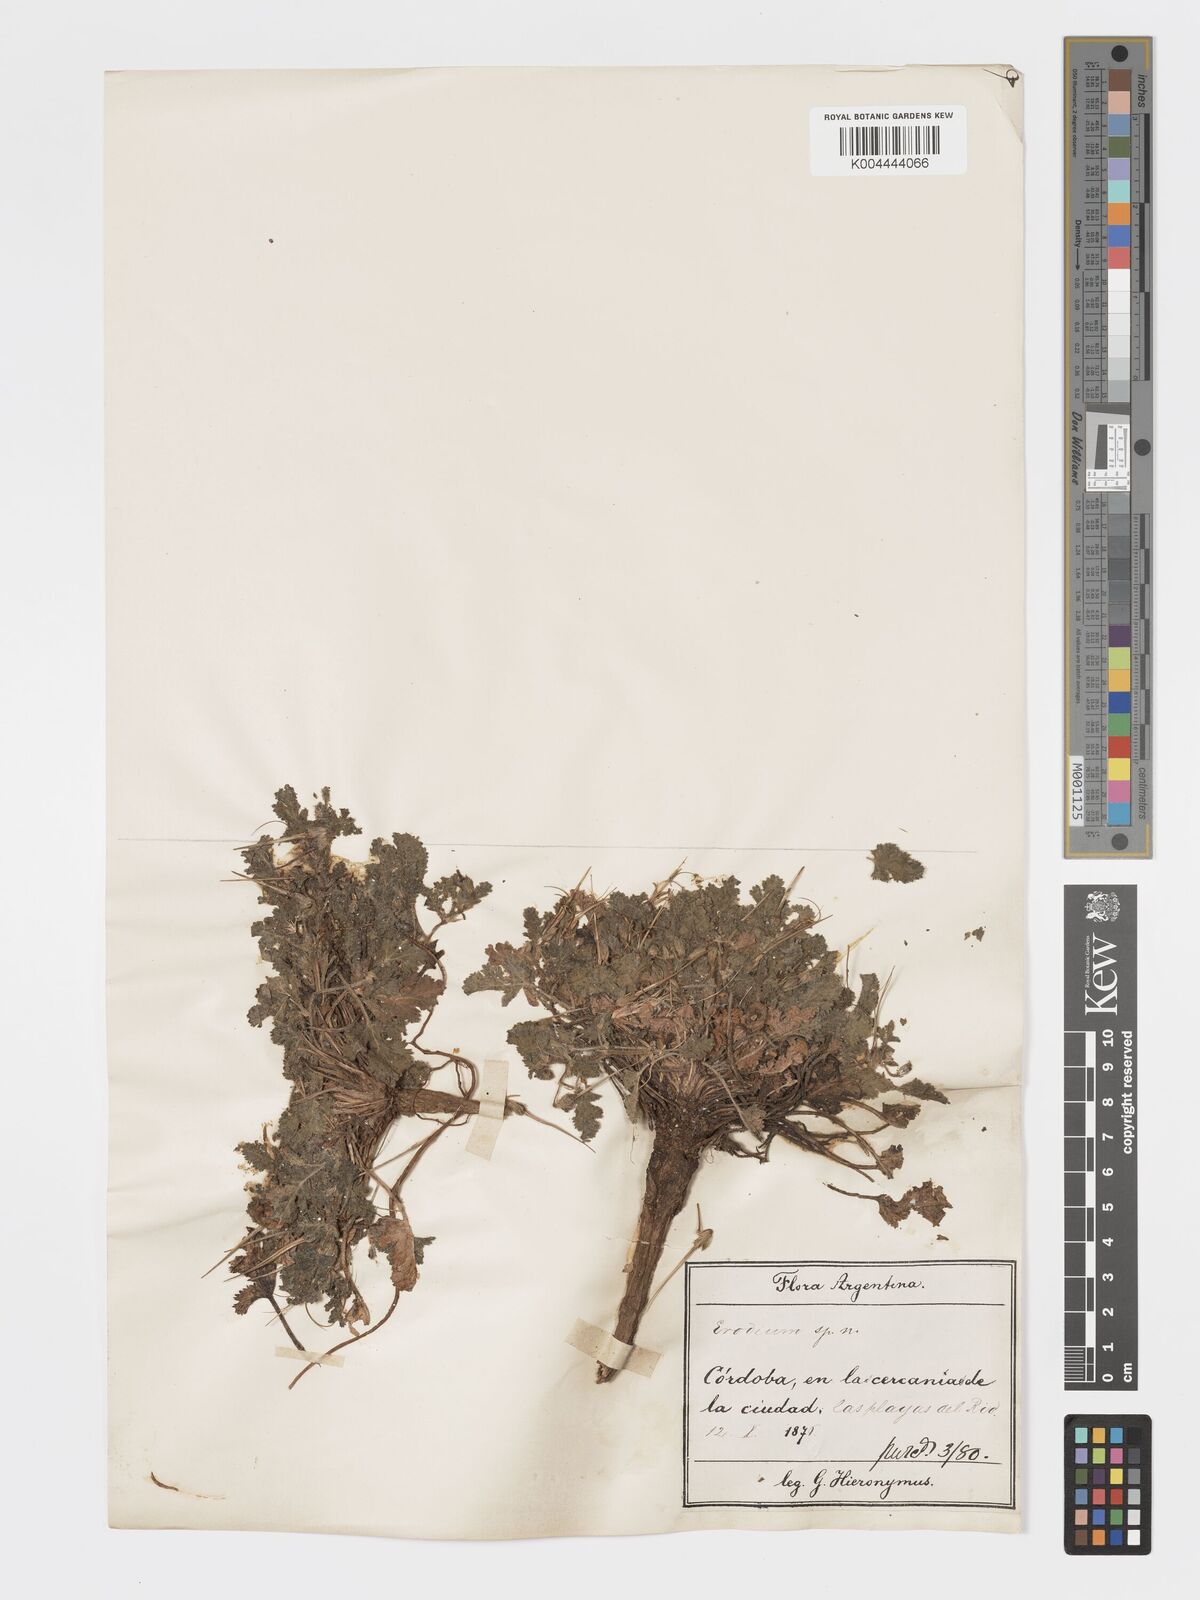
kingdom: Plantae
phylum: Tracheophyta
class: Magnoliopsida
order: Geraniales
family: Geraniaceae
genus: Erodium
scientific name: Erodium
